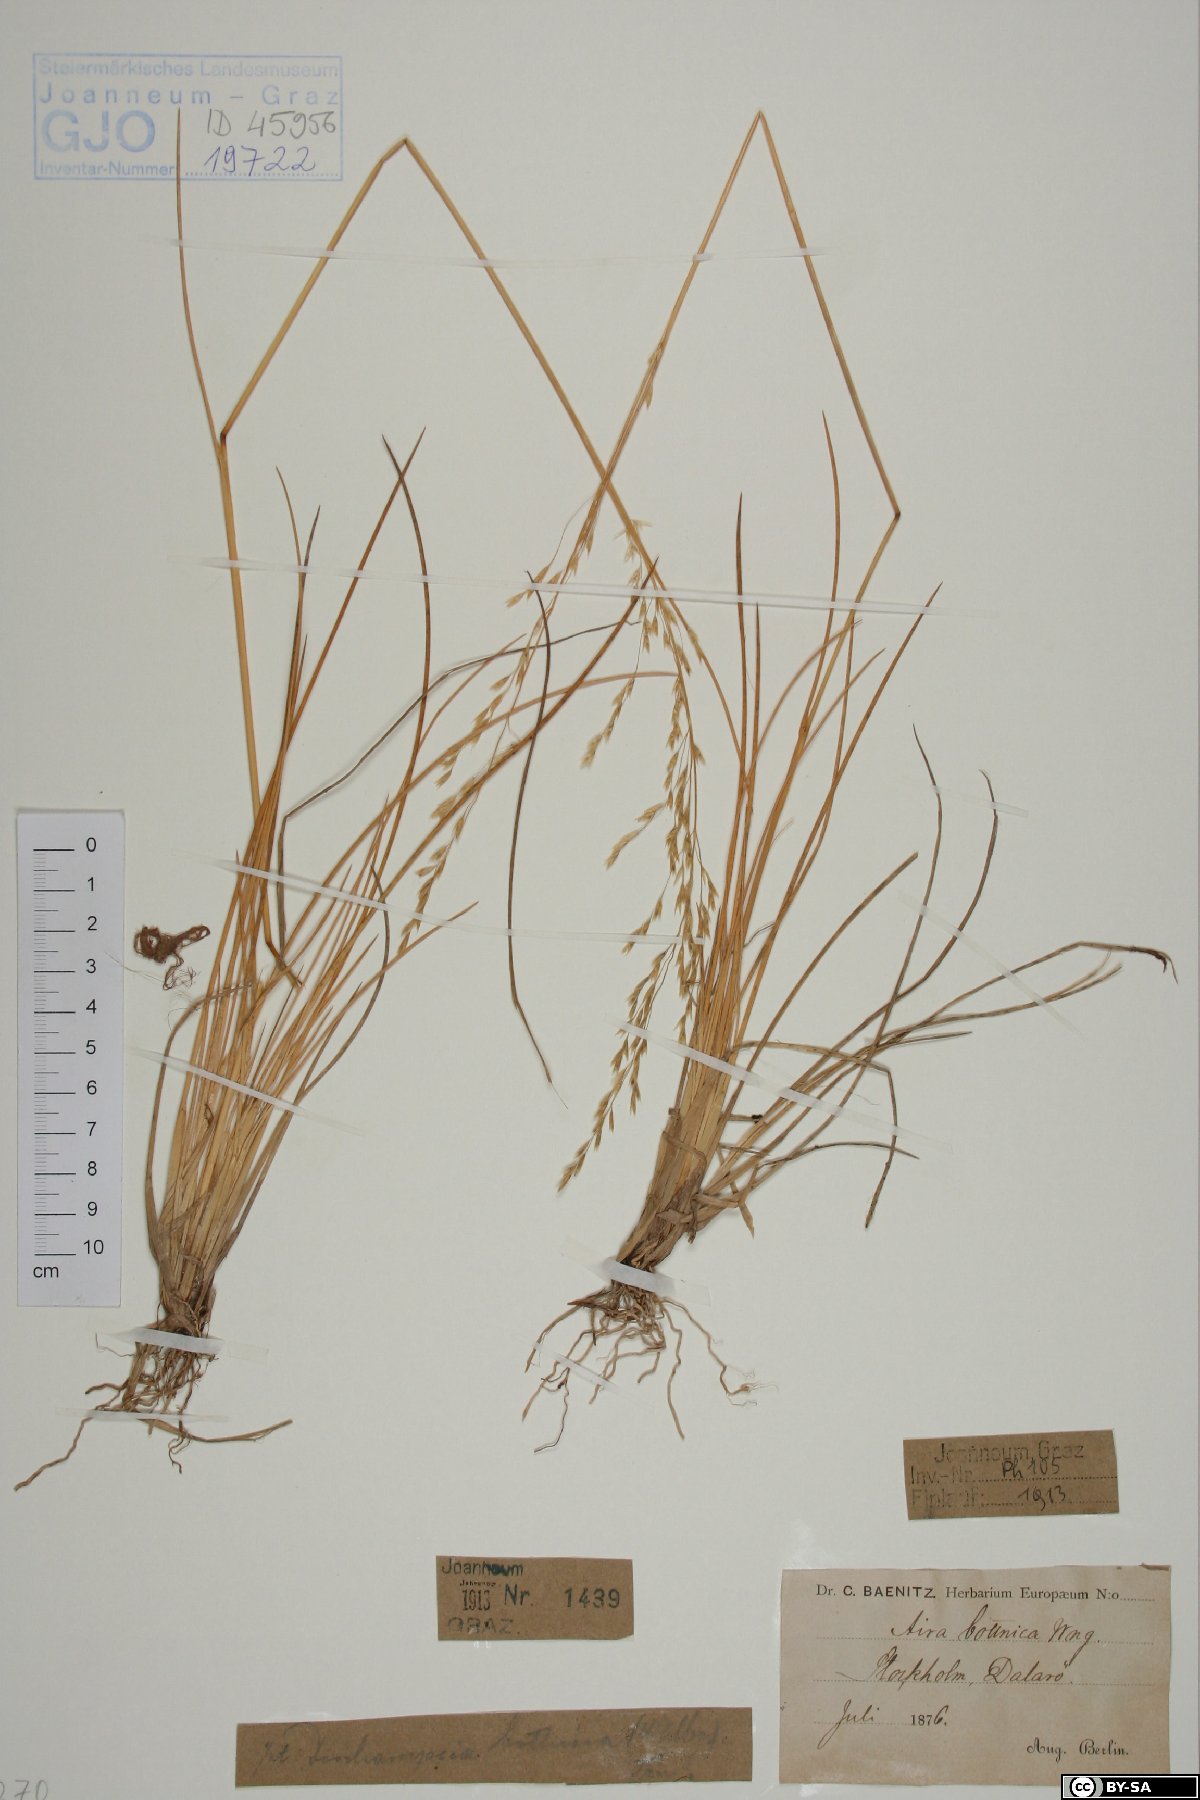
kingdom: Plantae
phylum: Tracheophyta
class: Liliopsida
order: Poales
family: Poaceae
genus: Deschampsia
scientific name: Deschampsia cespitosa
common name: Tufted hair-grass
